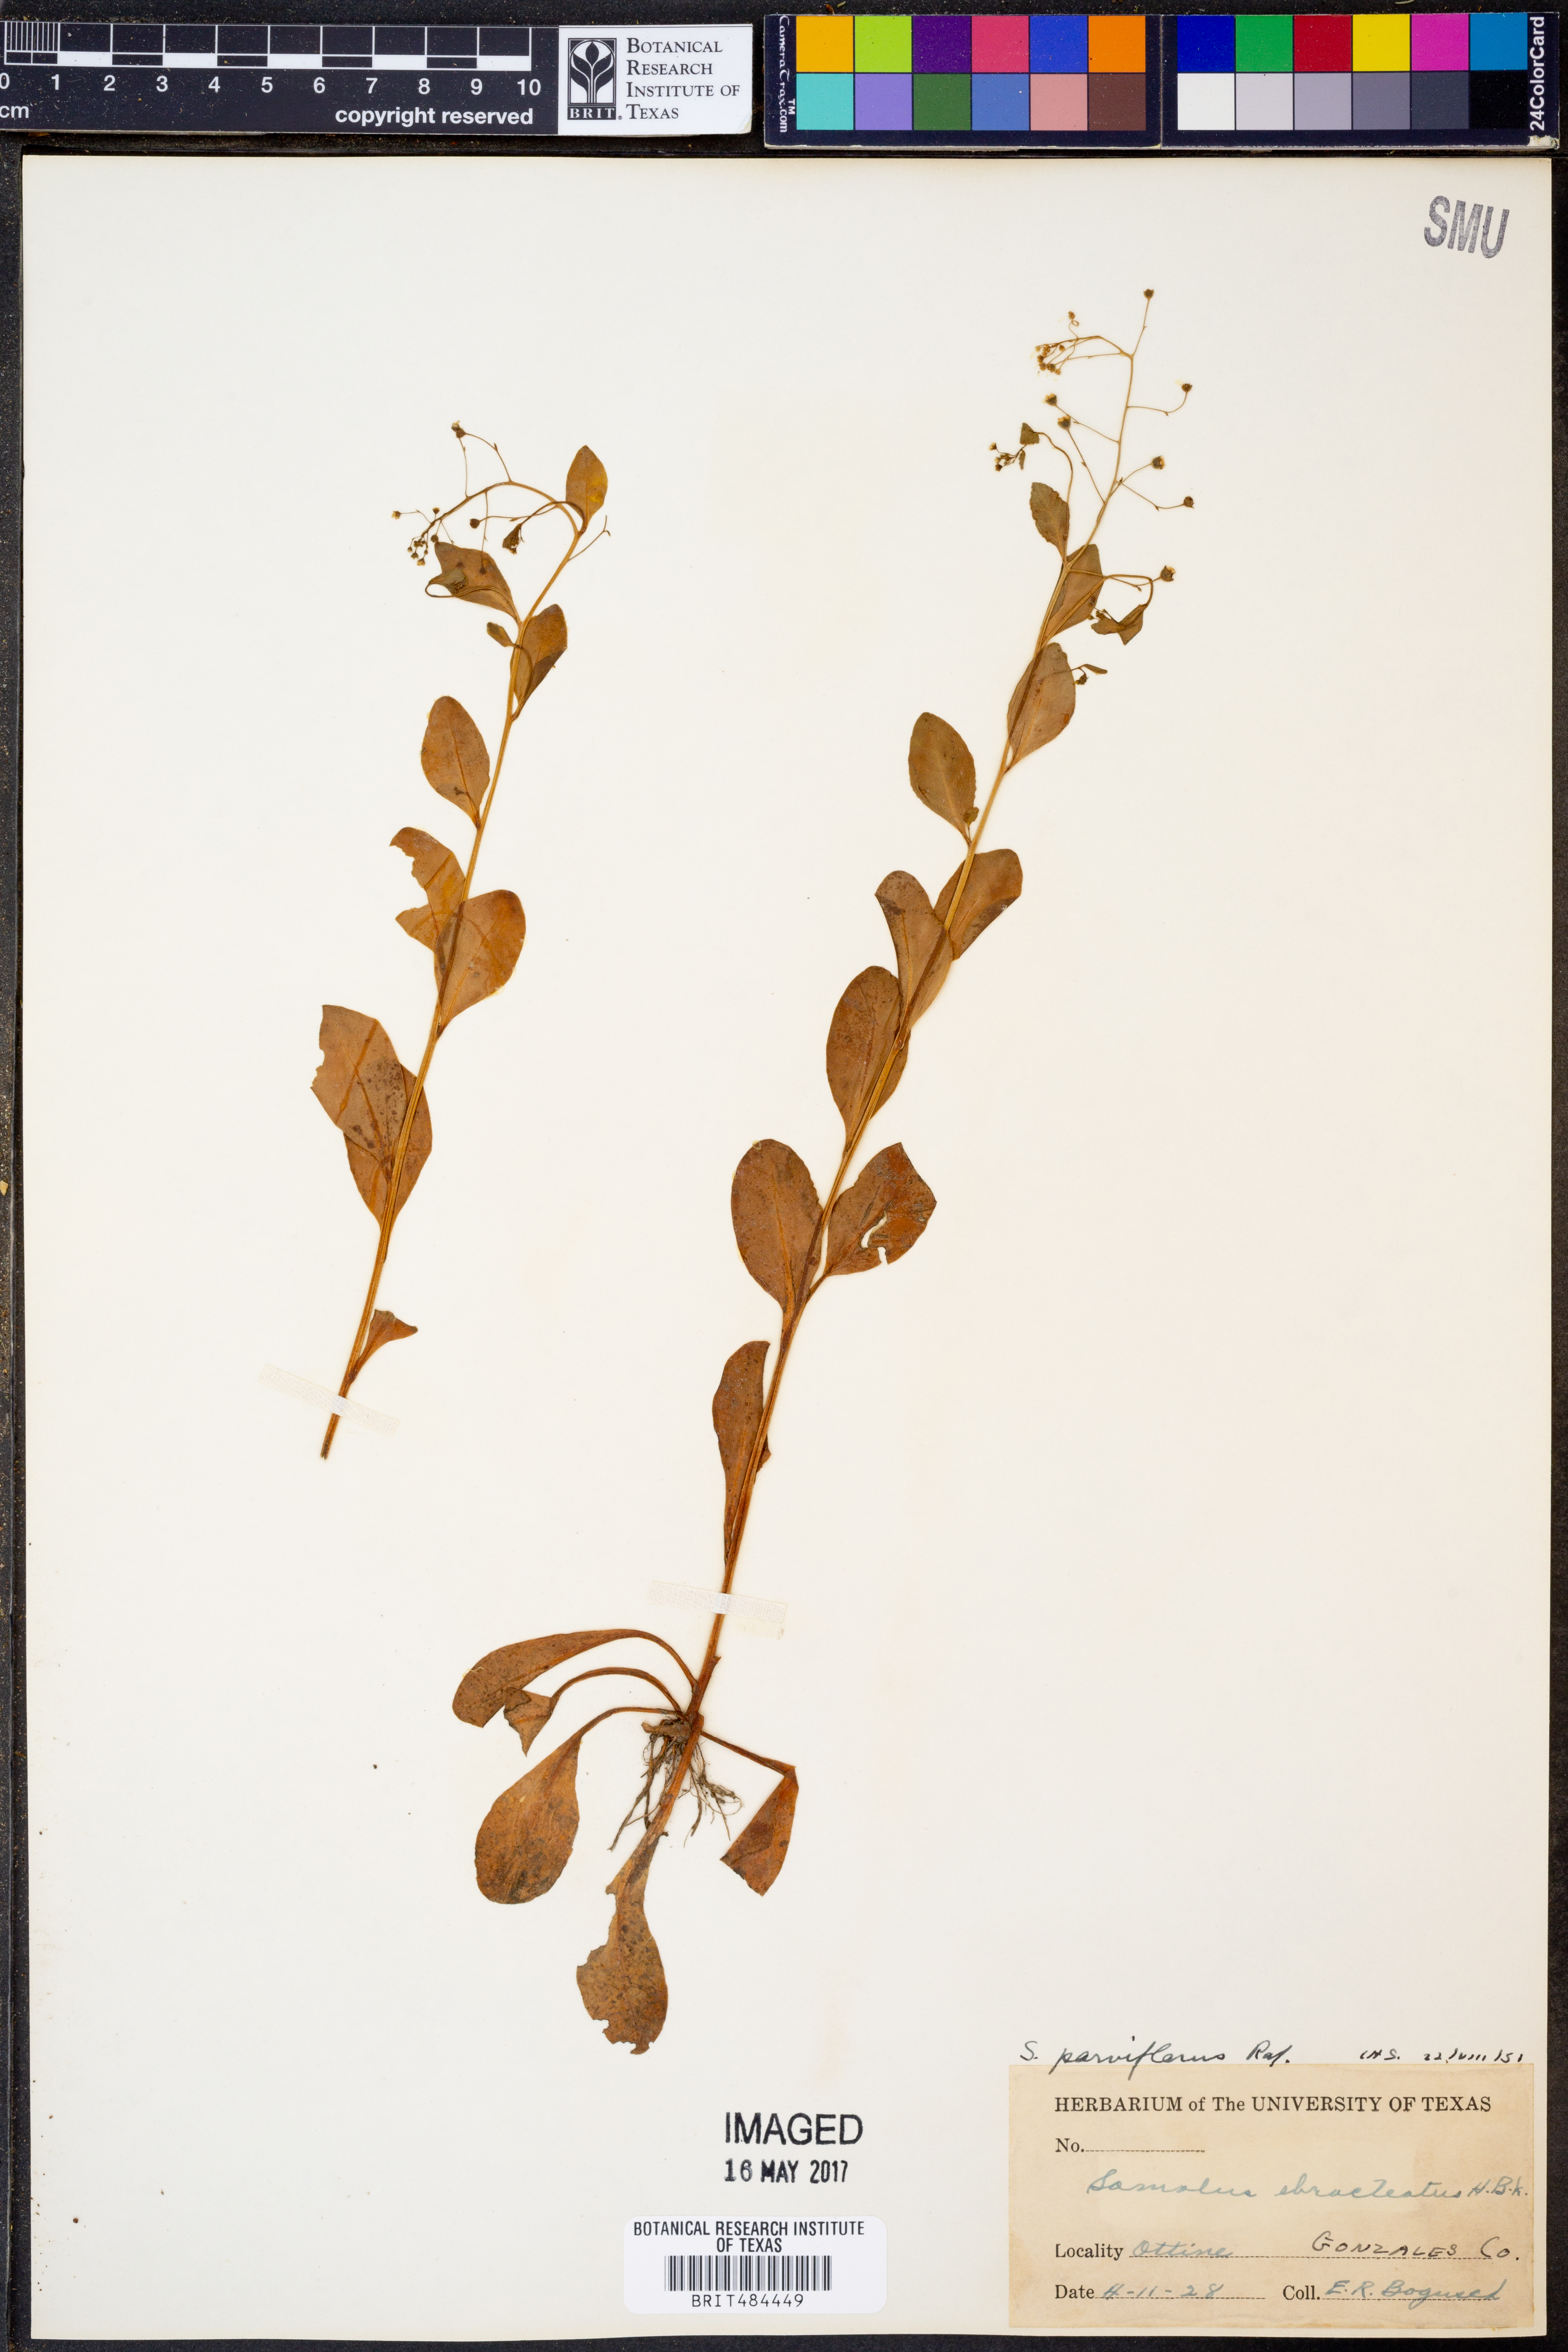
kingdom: Plantae
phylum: Tracheophyta
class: Magnoliopsida
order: Ericales
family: Primulaceae
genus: Samolus
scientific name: Samolus parviflorus
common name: False water pimpernel
